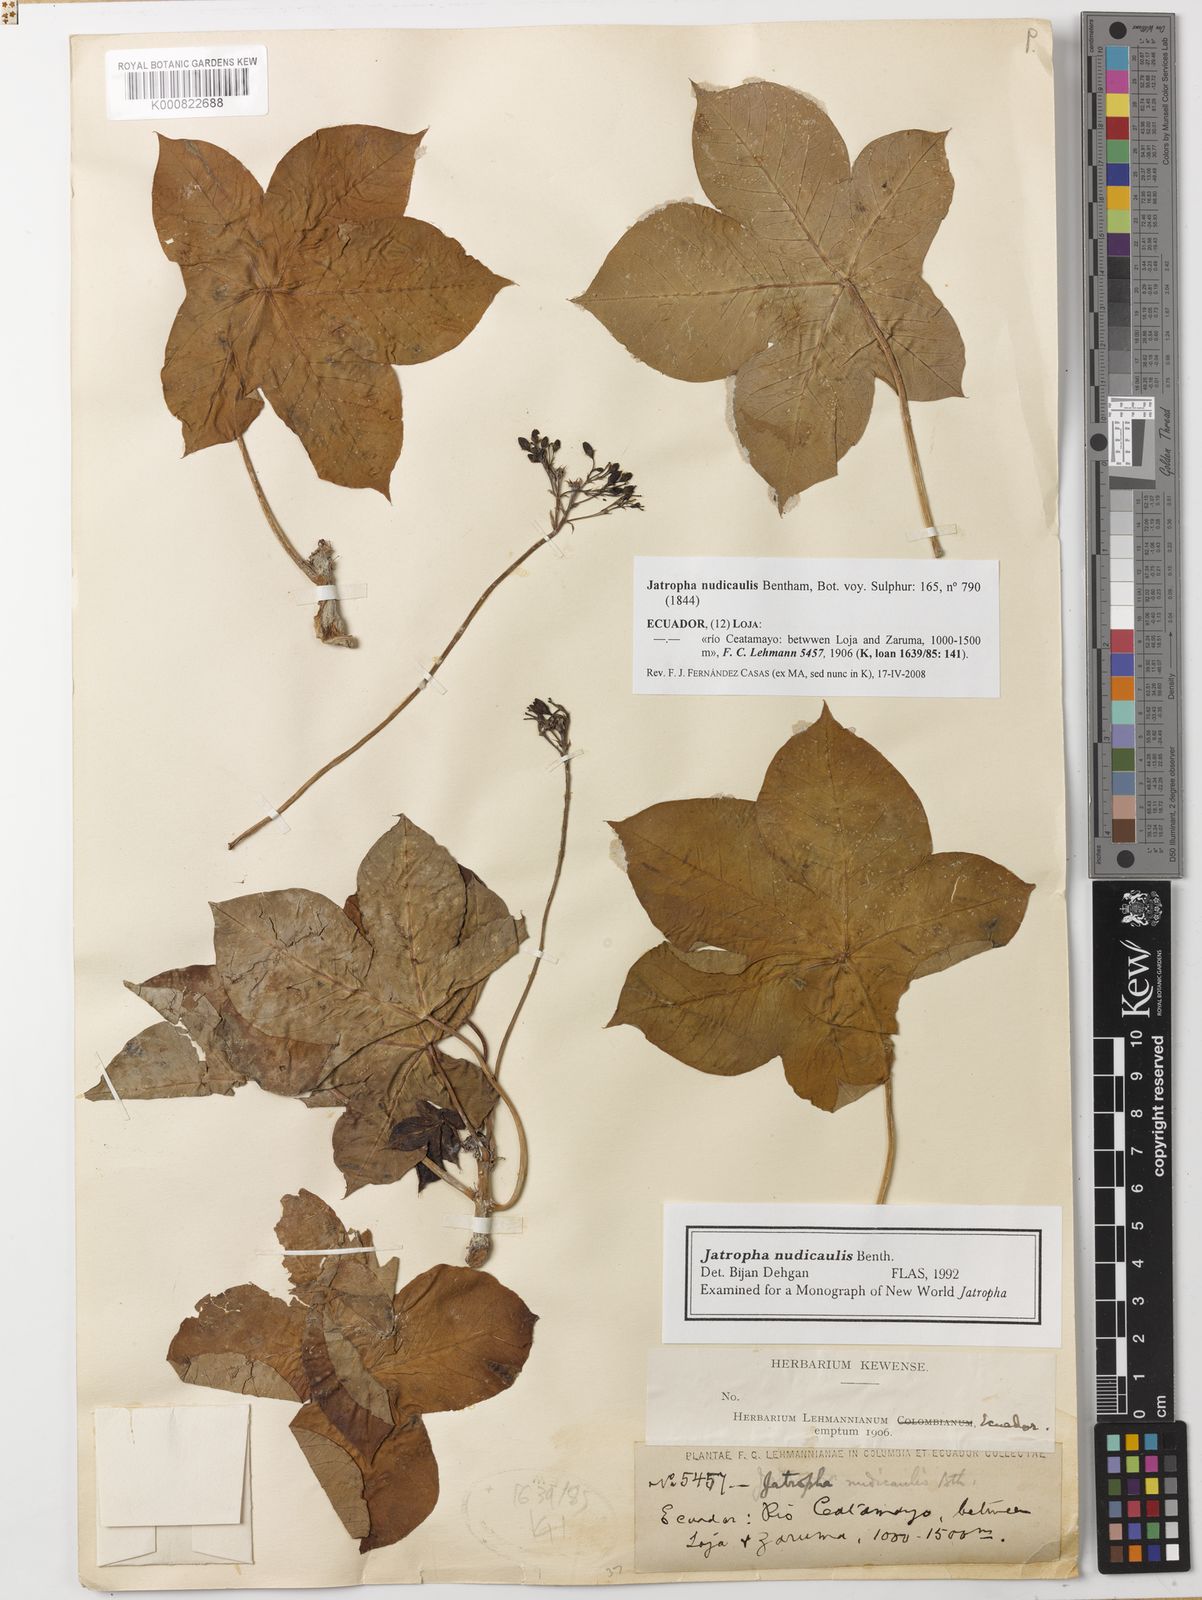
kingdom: Plantae
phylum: Tracheophyta
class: Magnoliopsida
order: Malpighiales
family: Euphorbiaceae
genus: Jatropha
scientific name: Jatropha nudicaulis
